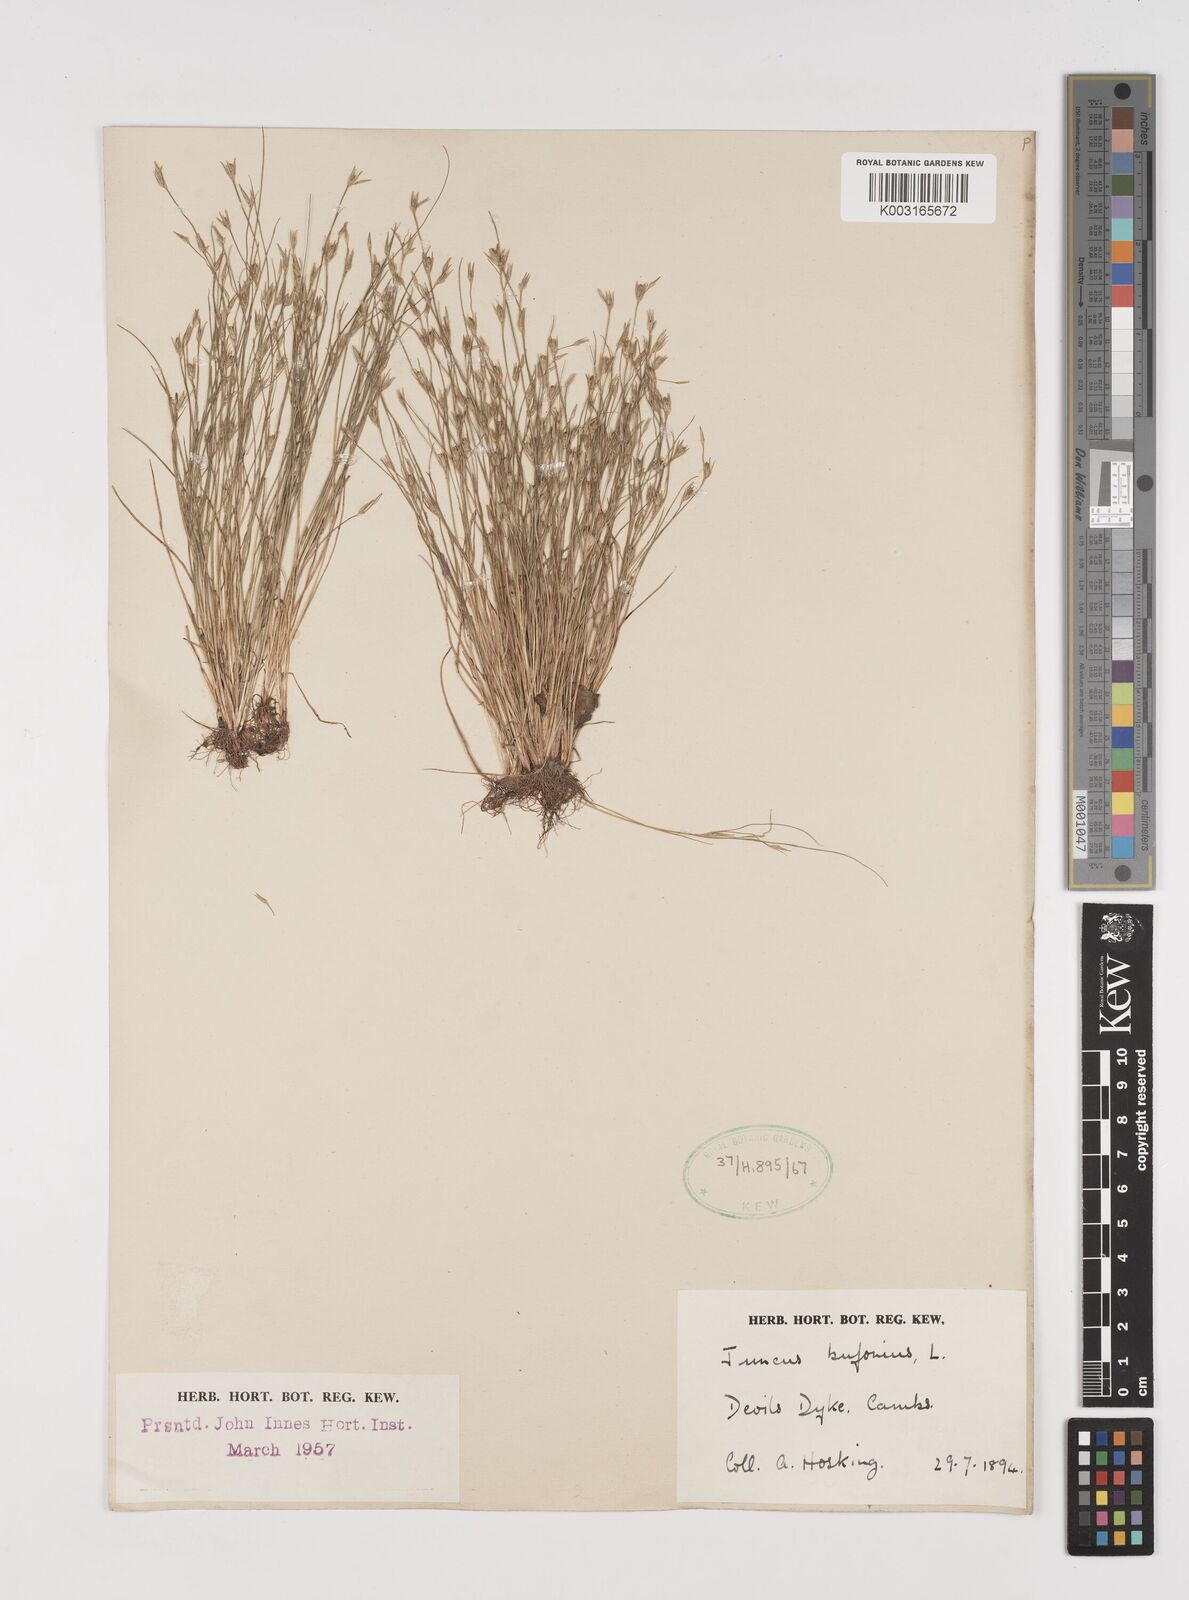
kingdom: Plantae
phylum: Tracheophyta
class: Liliopsida
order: Poales
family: Juncaceae
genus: Juncus
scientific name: Juncus bufonius
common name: Toad rush
